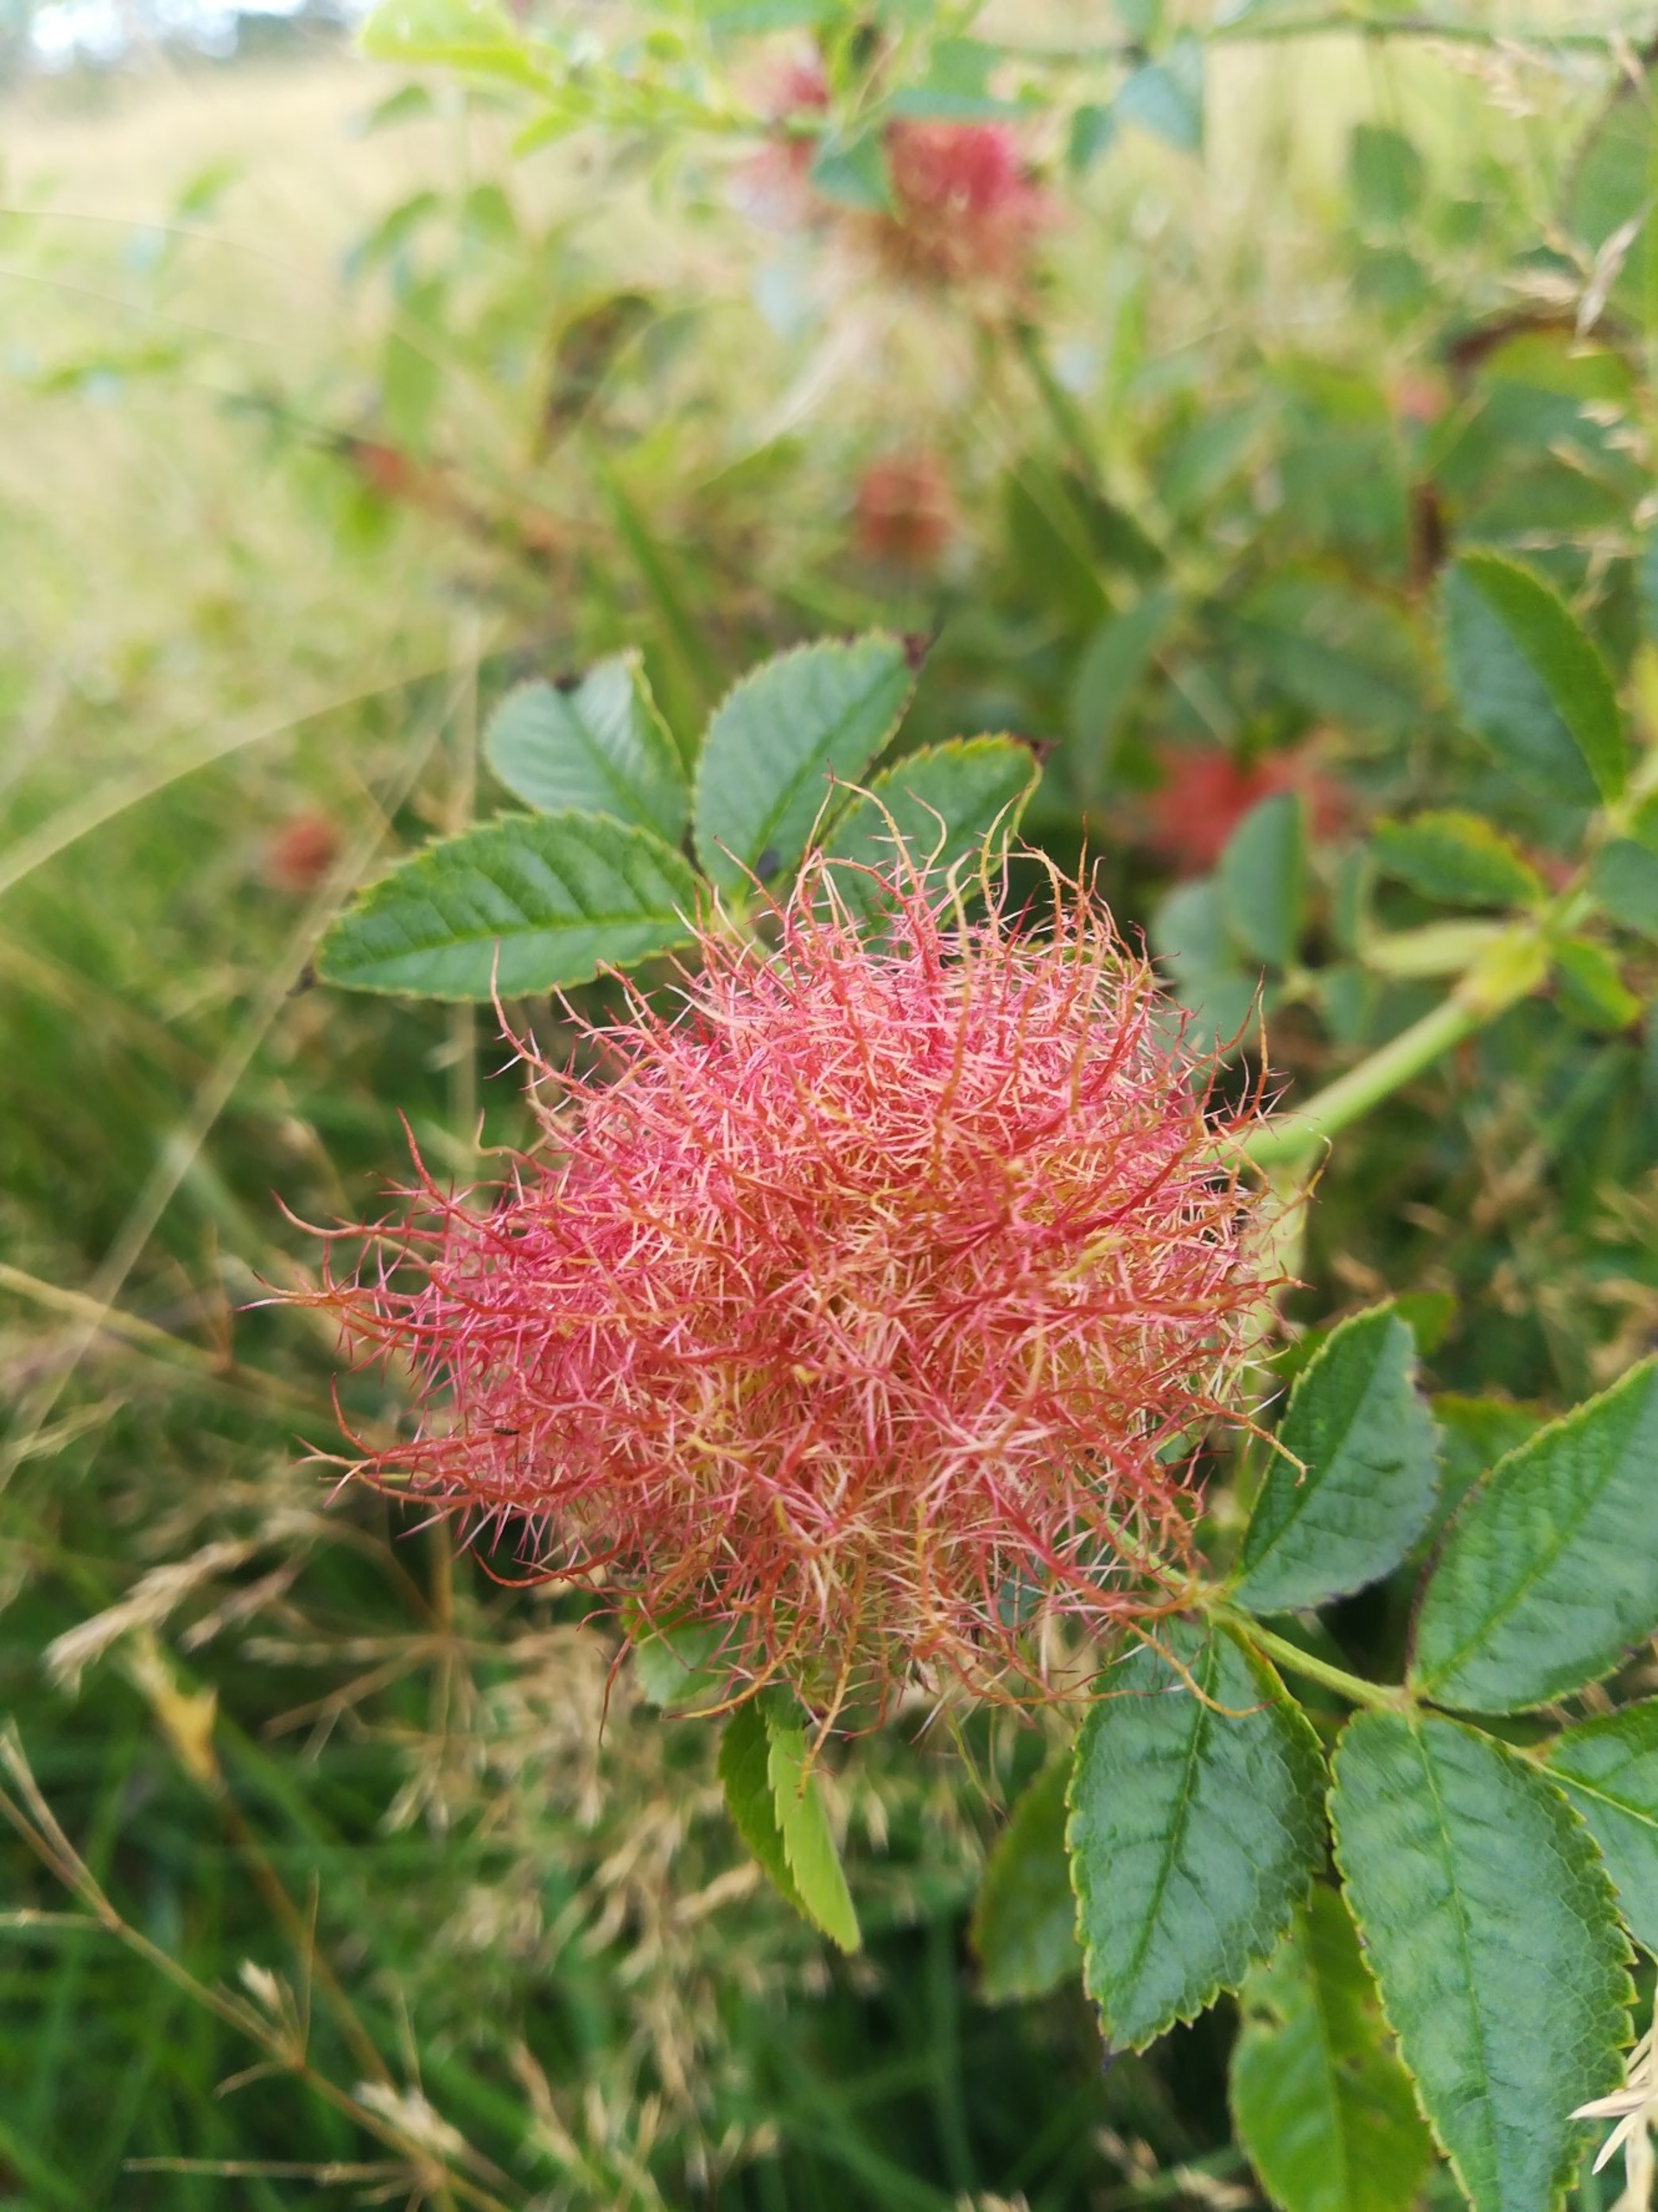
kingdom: Animalia
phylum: Arthropoda
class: Insecta
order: Hymenoptera
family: Cynipidae
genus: Diplolepis
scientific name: Diplolepis rosae
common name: Bedeguargalhveps
